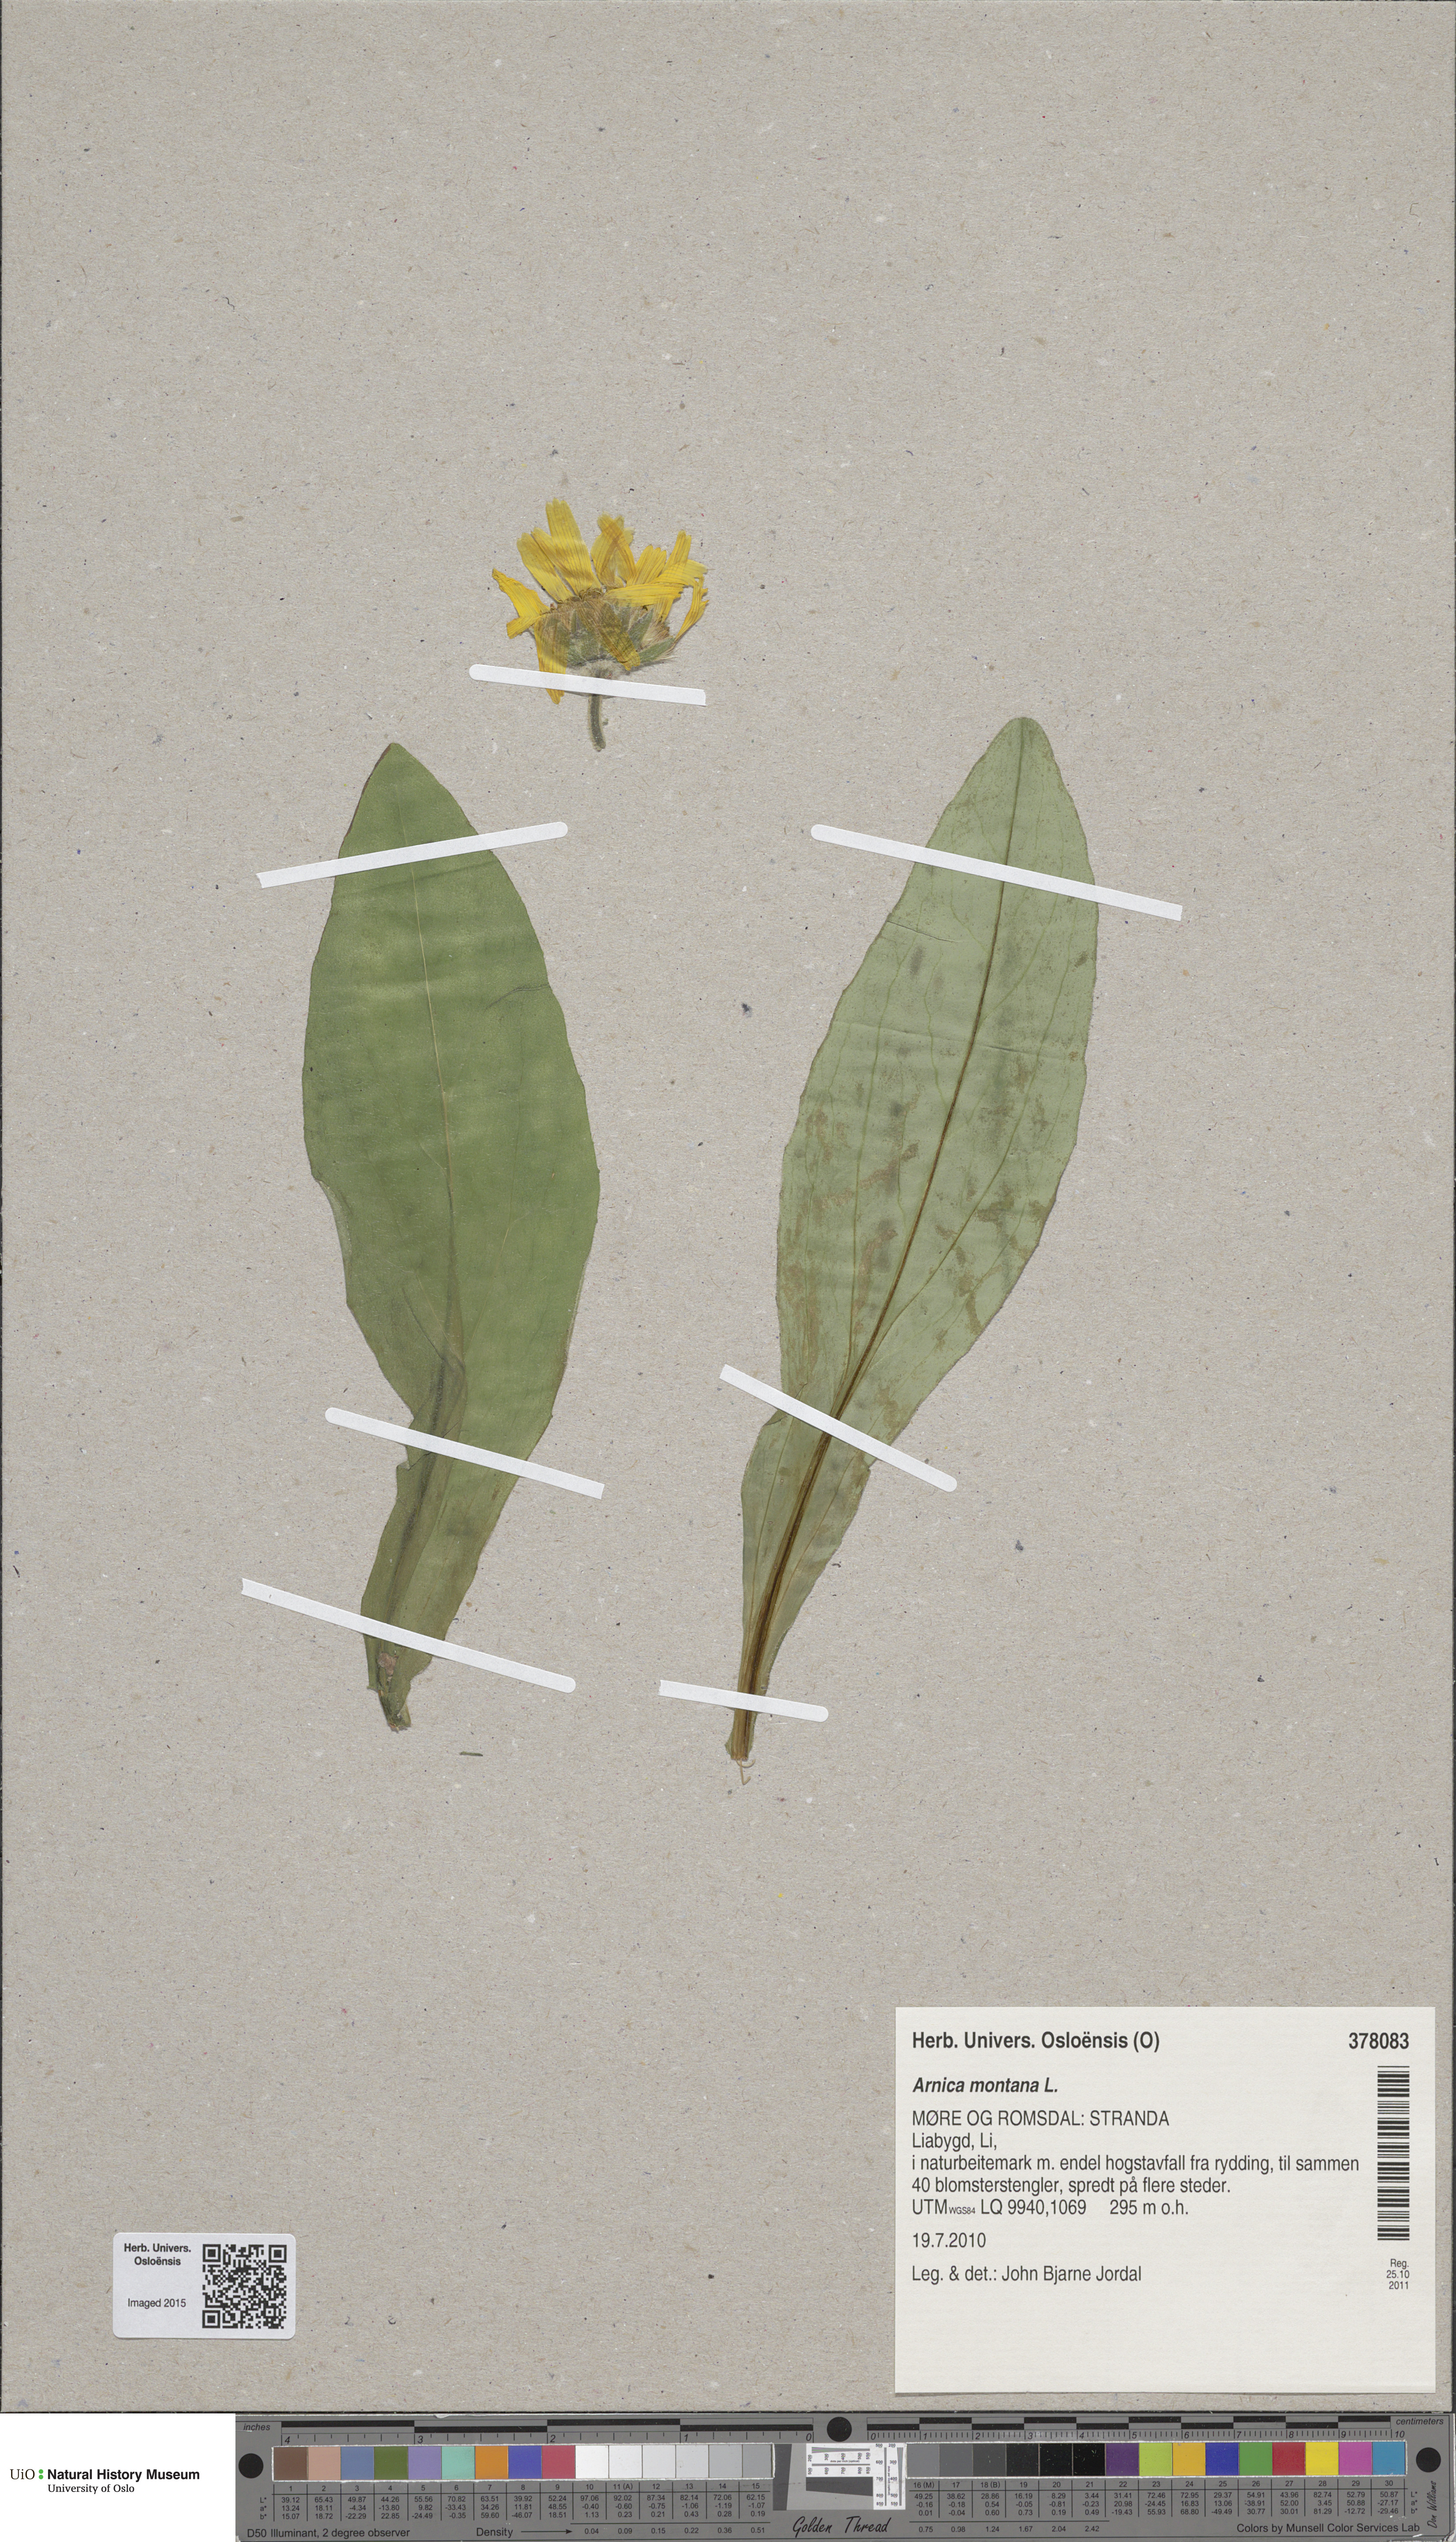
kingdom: Plantae
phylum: Tracheophyta
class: Magnoliopsida
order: Asterales
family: Asteraceae
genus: Arnica
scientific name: Arnica montana
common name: Leopard's bane
